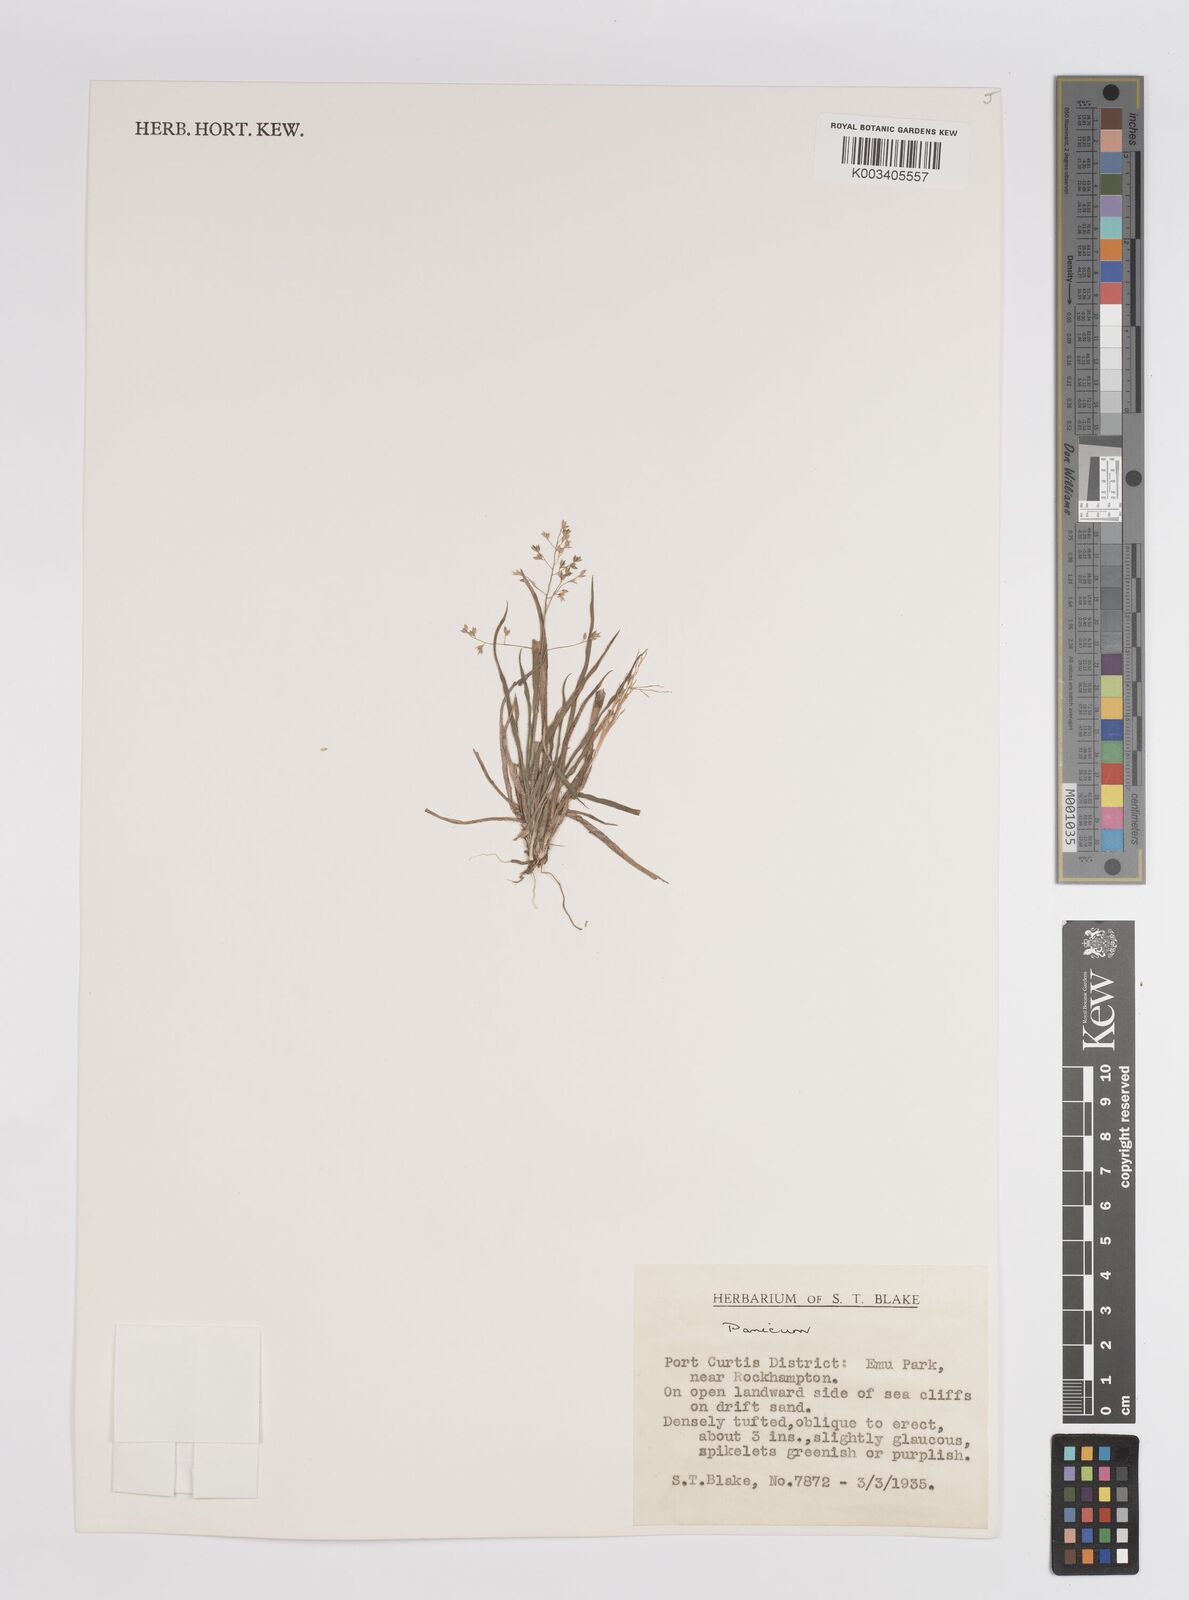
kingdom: Plantae
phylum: Tracheophyta
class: Liliopsida
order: Poales
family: Poaceae
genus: Panicum
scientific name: Panicum
